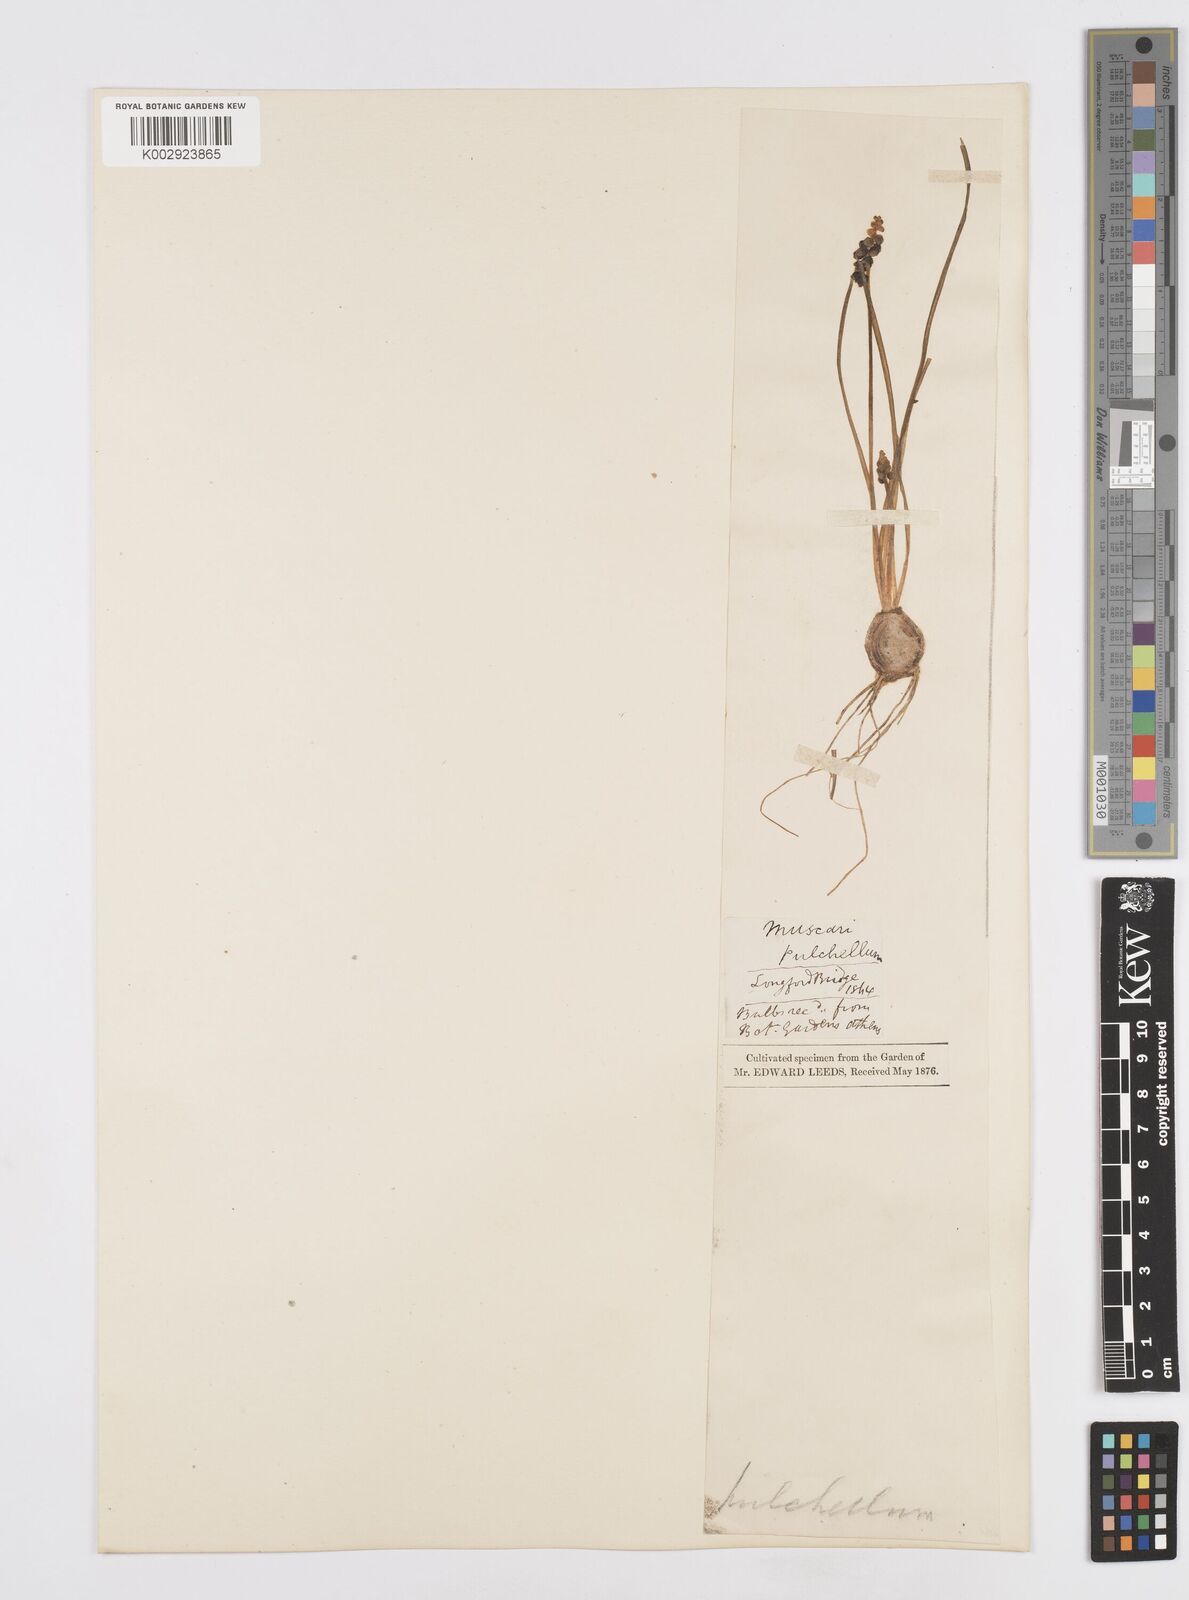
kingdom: Plantae
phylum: Tracheophyta
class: Liliopsida
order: Asparagales
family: Asparagaceae
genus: Muscari
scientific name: Muscari
